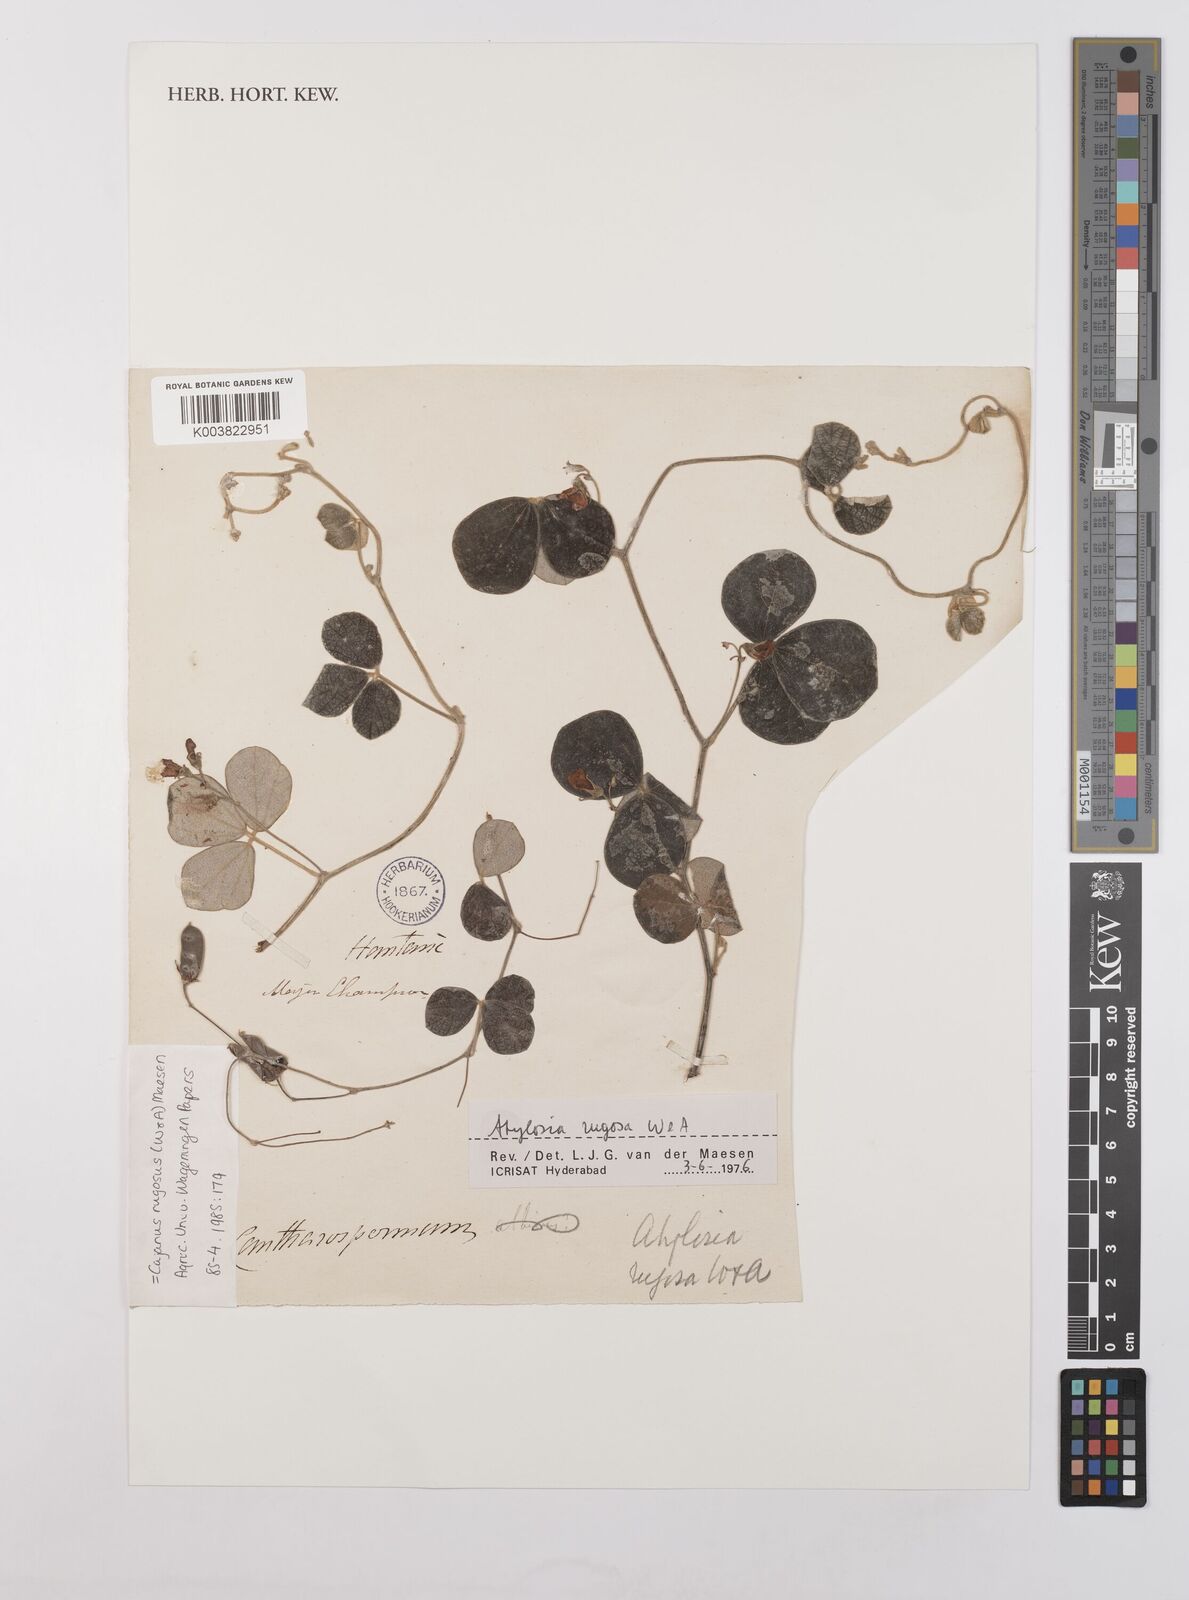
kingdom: Plantae
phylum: Tracheophyta
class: Magnoliopsida
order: Fabales
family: Fabaceae
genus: Cajanus
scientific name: Cajanus rugosus
